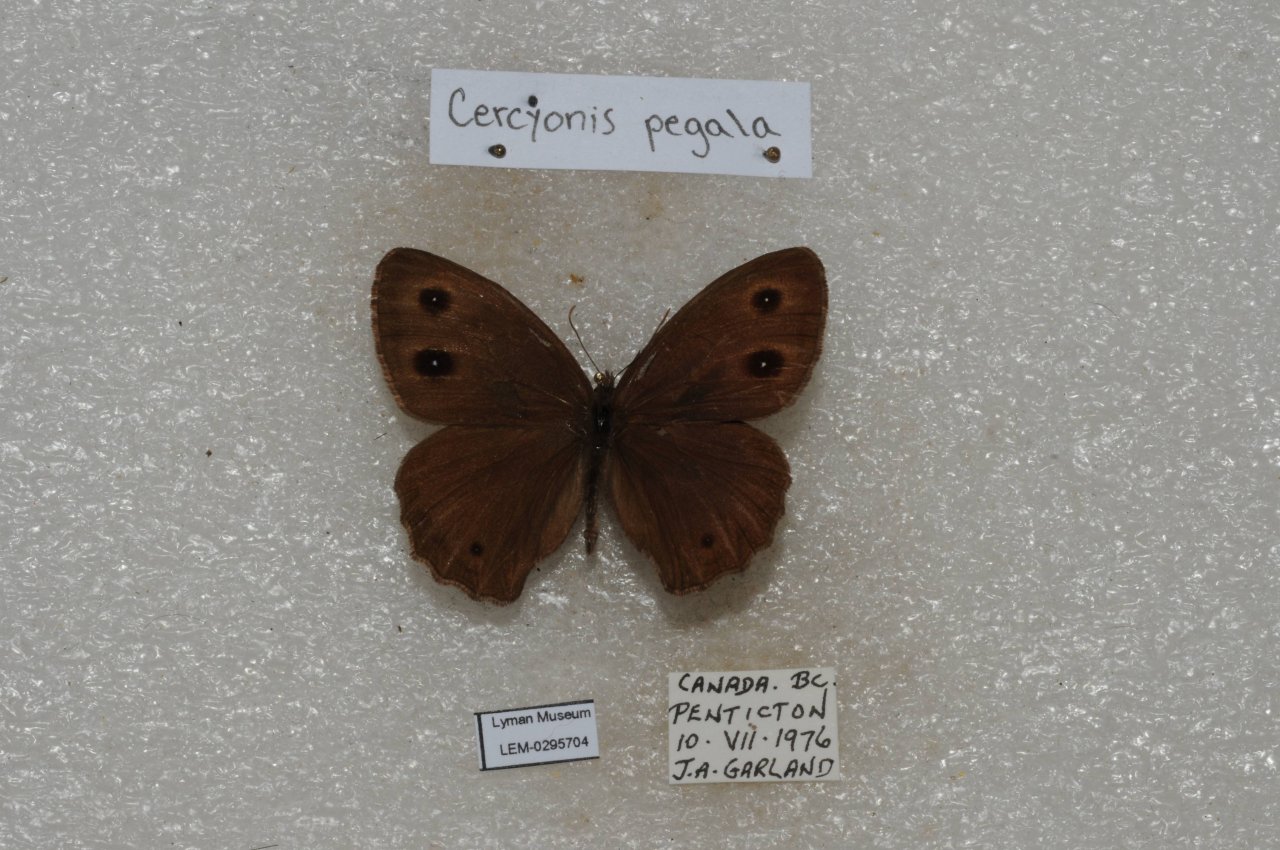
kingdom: Animalia
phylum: Arthropoda
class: Insecta
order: Lepidoptera
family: Nymphalidae
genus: Cercyonis
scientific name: Cercyonis pegala
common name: Common Wood-Nymph
